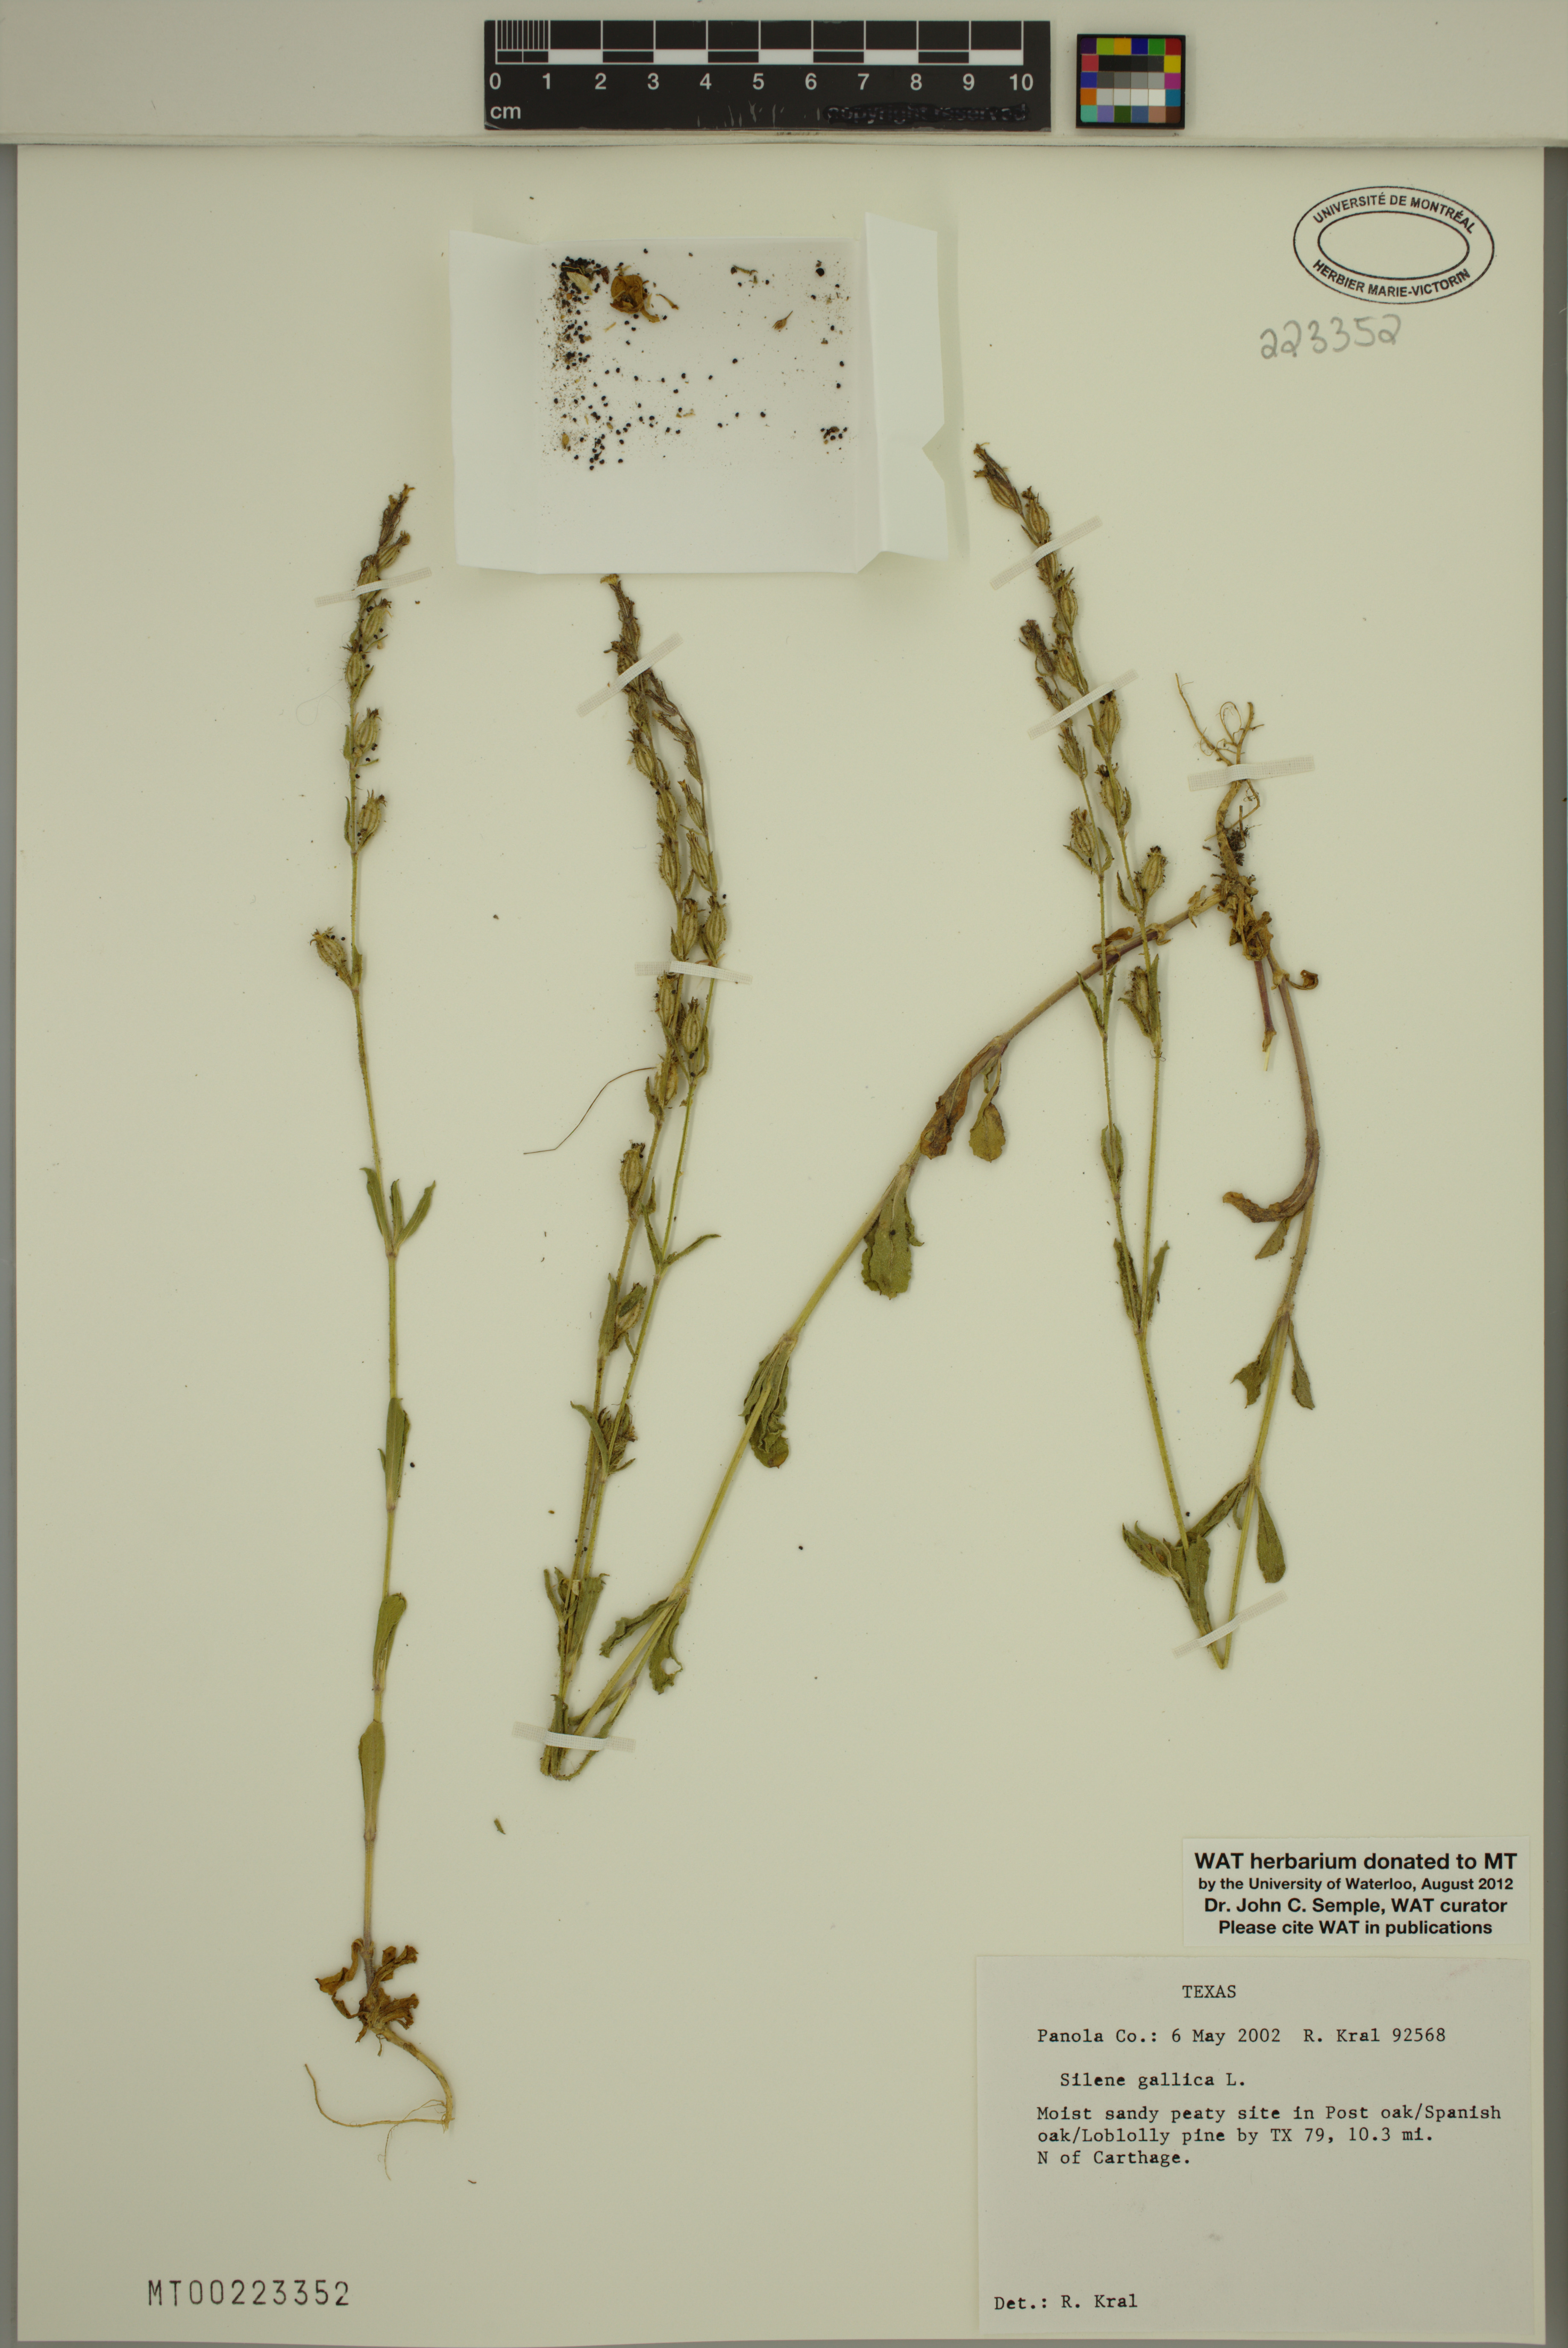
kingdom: Plantae
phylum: Tracheophyta
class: Magnoliopsida
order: Caryophyllales
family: Caryophyllaceae
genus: Silene
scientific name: Silene gallica
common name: Small-flowered catchfly
